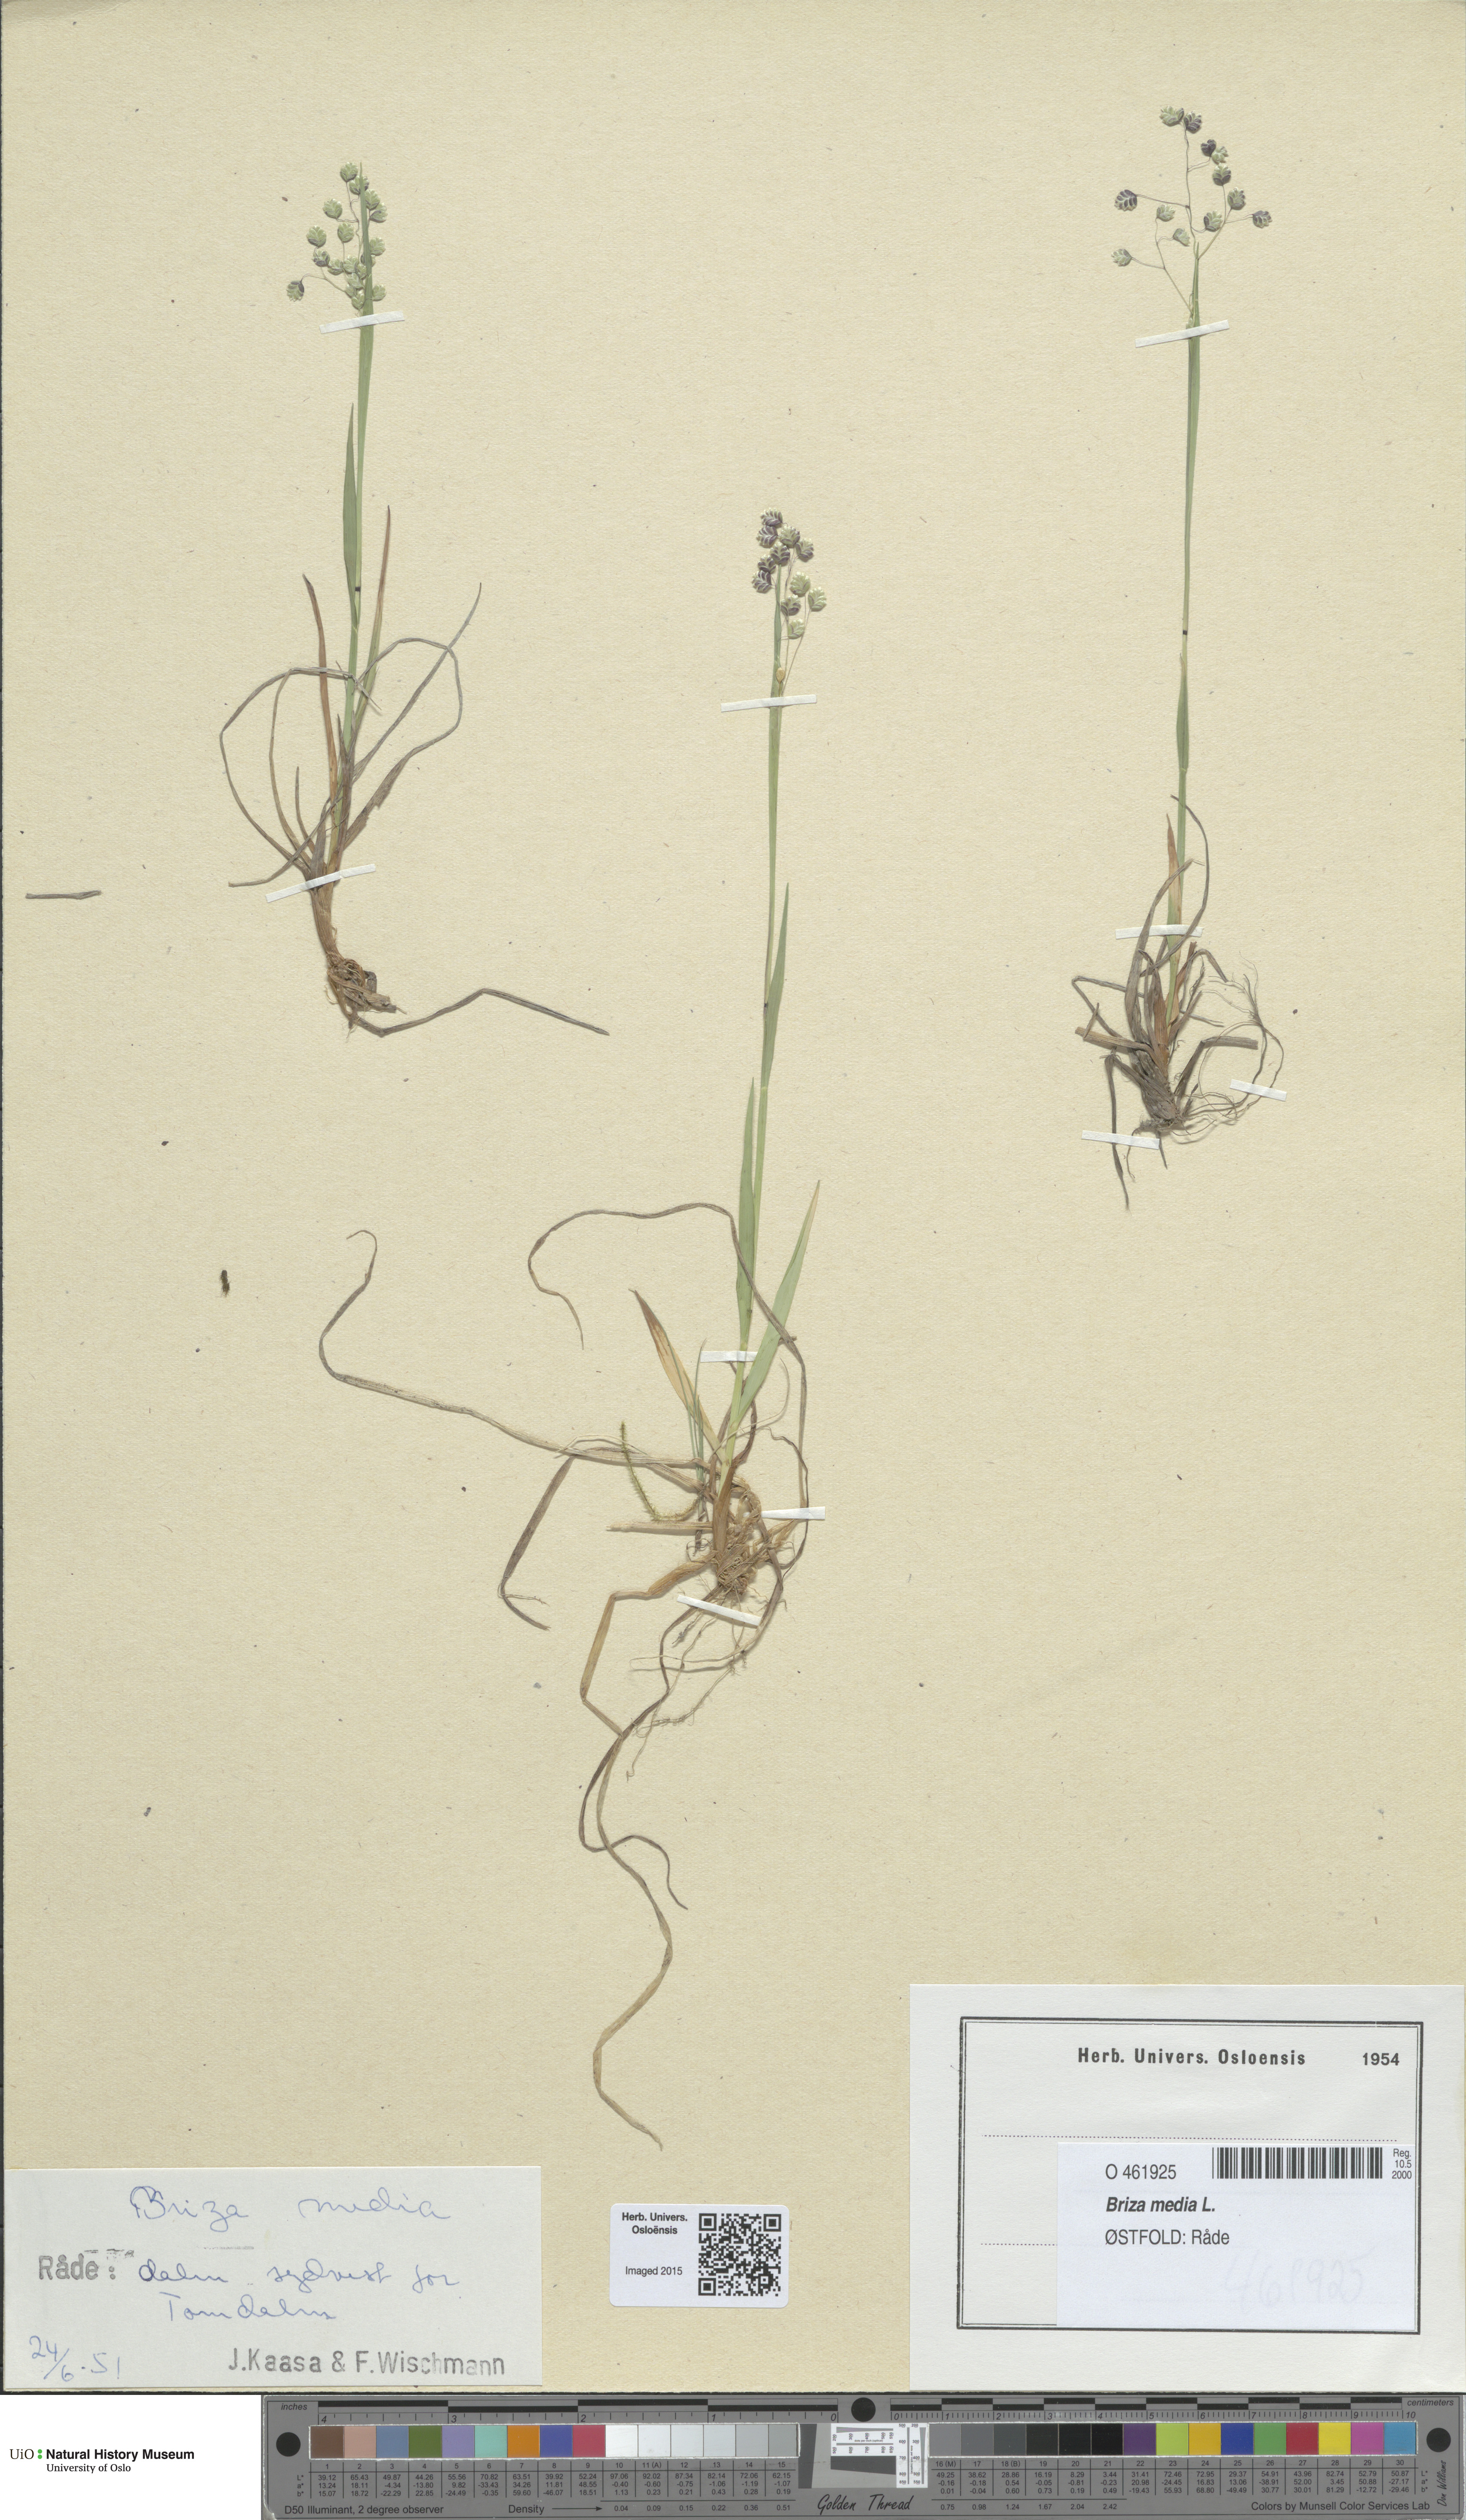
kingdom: Plantae
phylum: Tracheophyta
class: Liliopsida
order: Poales
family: Poaceae
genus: Briza
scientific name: Briza media
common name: Quaking grass
